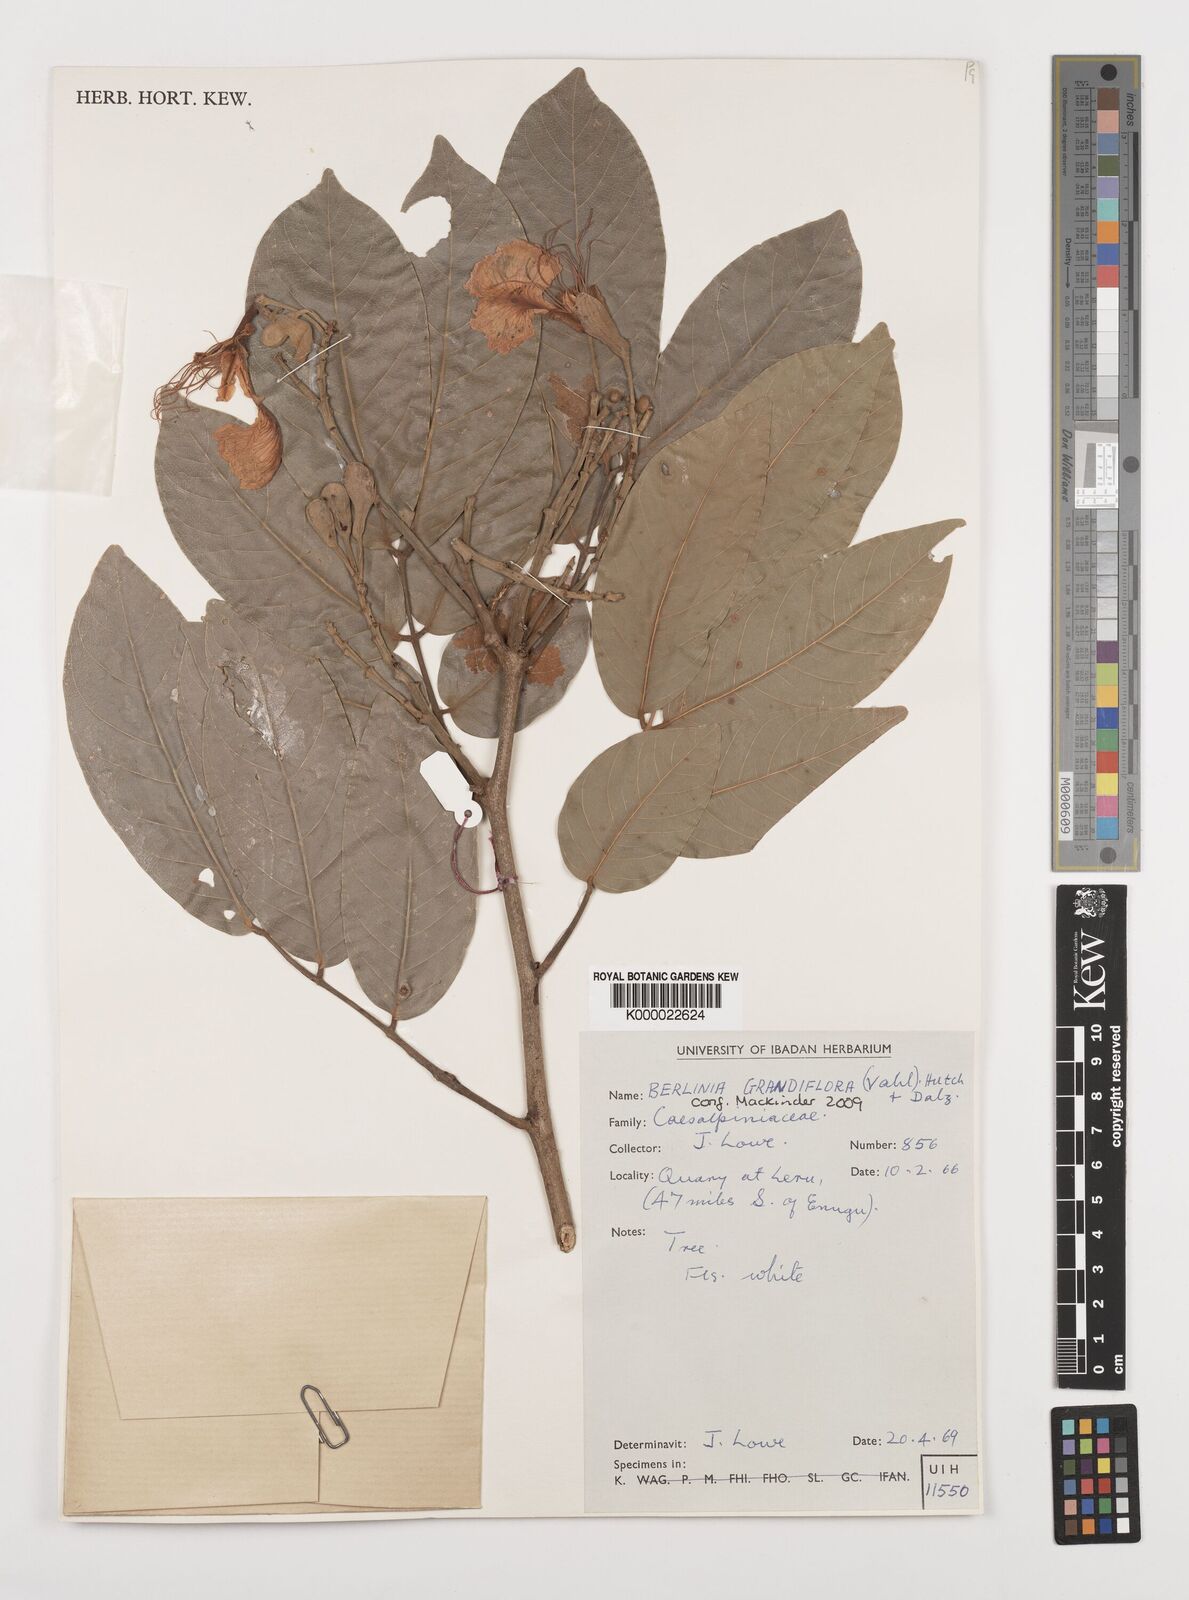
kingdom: Plantae
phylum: Tracheophyta
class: Magnoliopsida
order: Fabales
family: Fabaceae
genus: Berlinia
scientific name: Berlinia grandiflora
